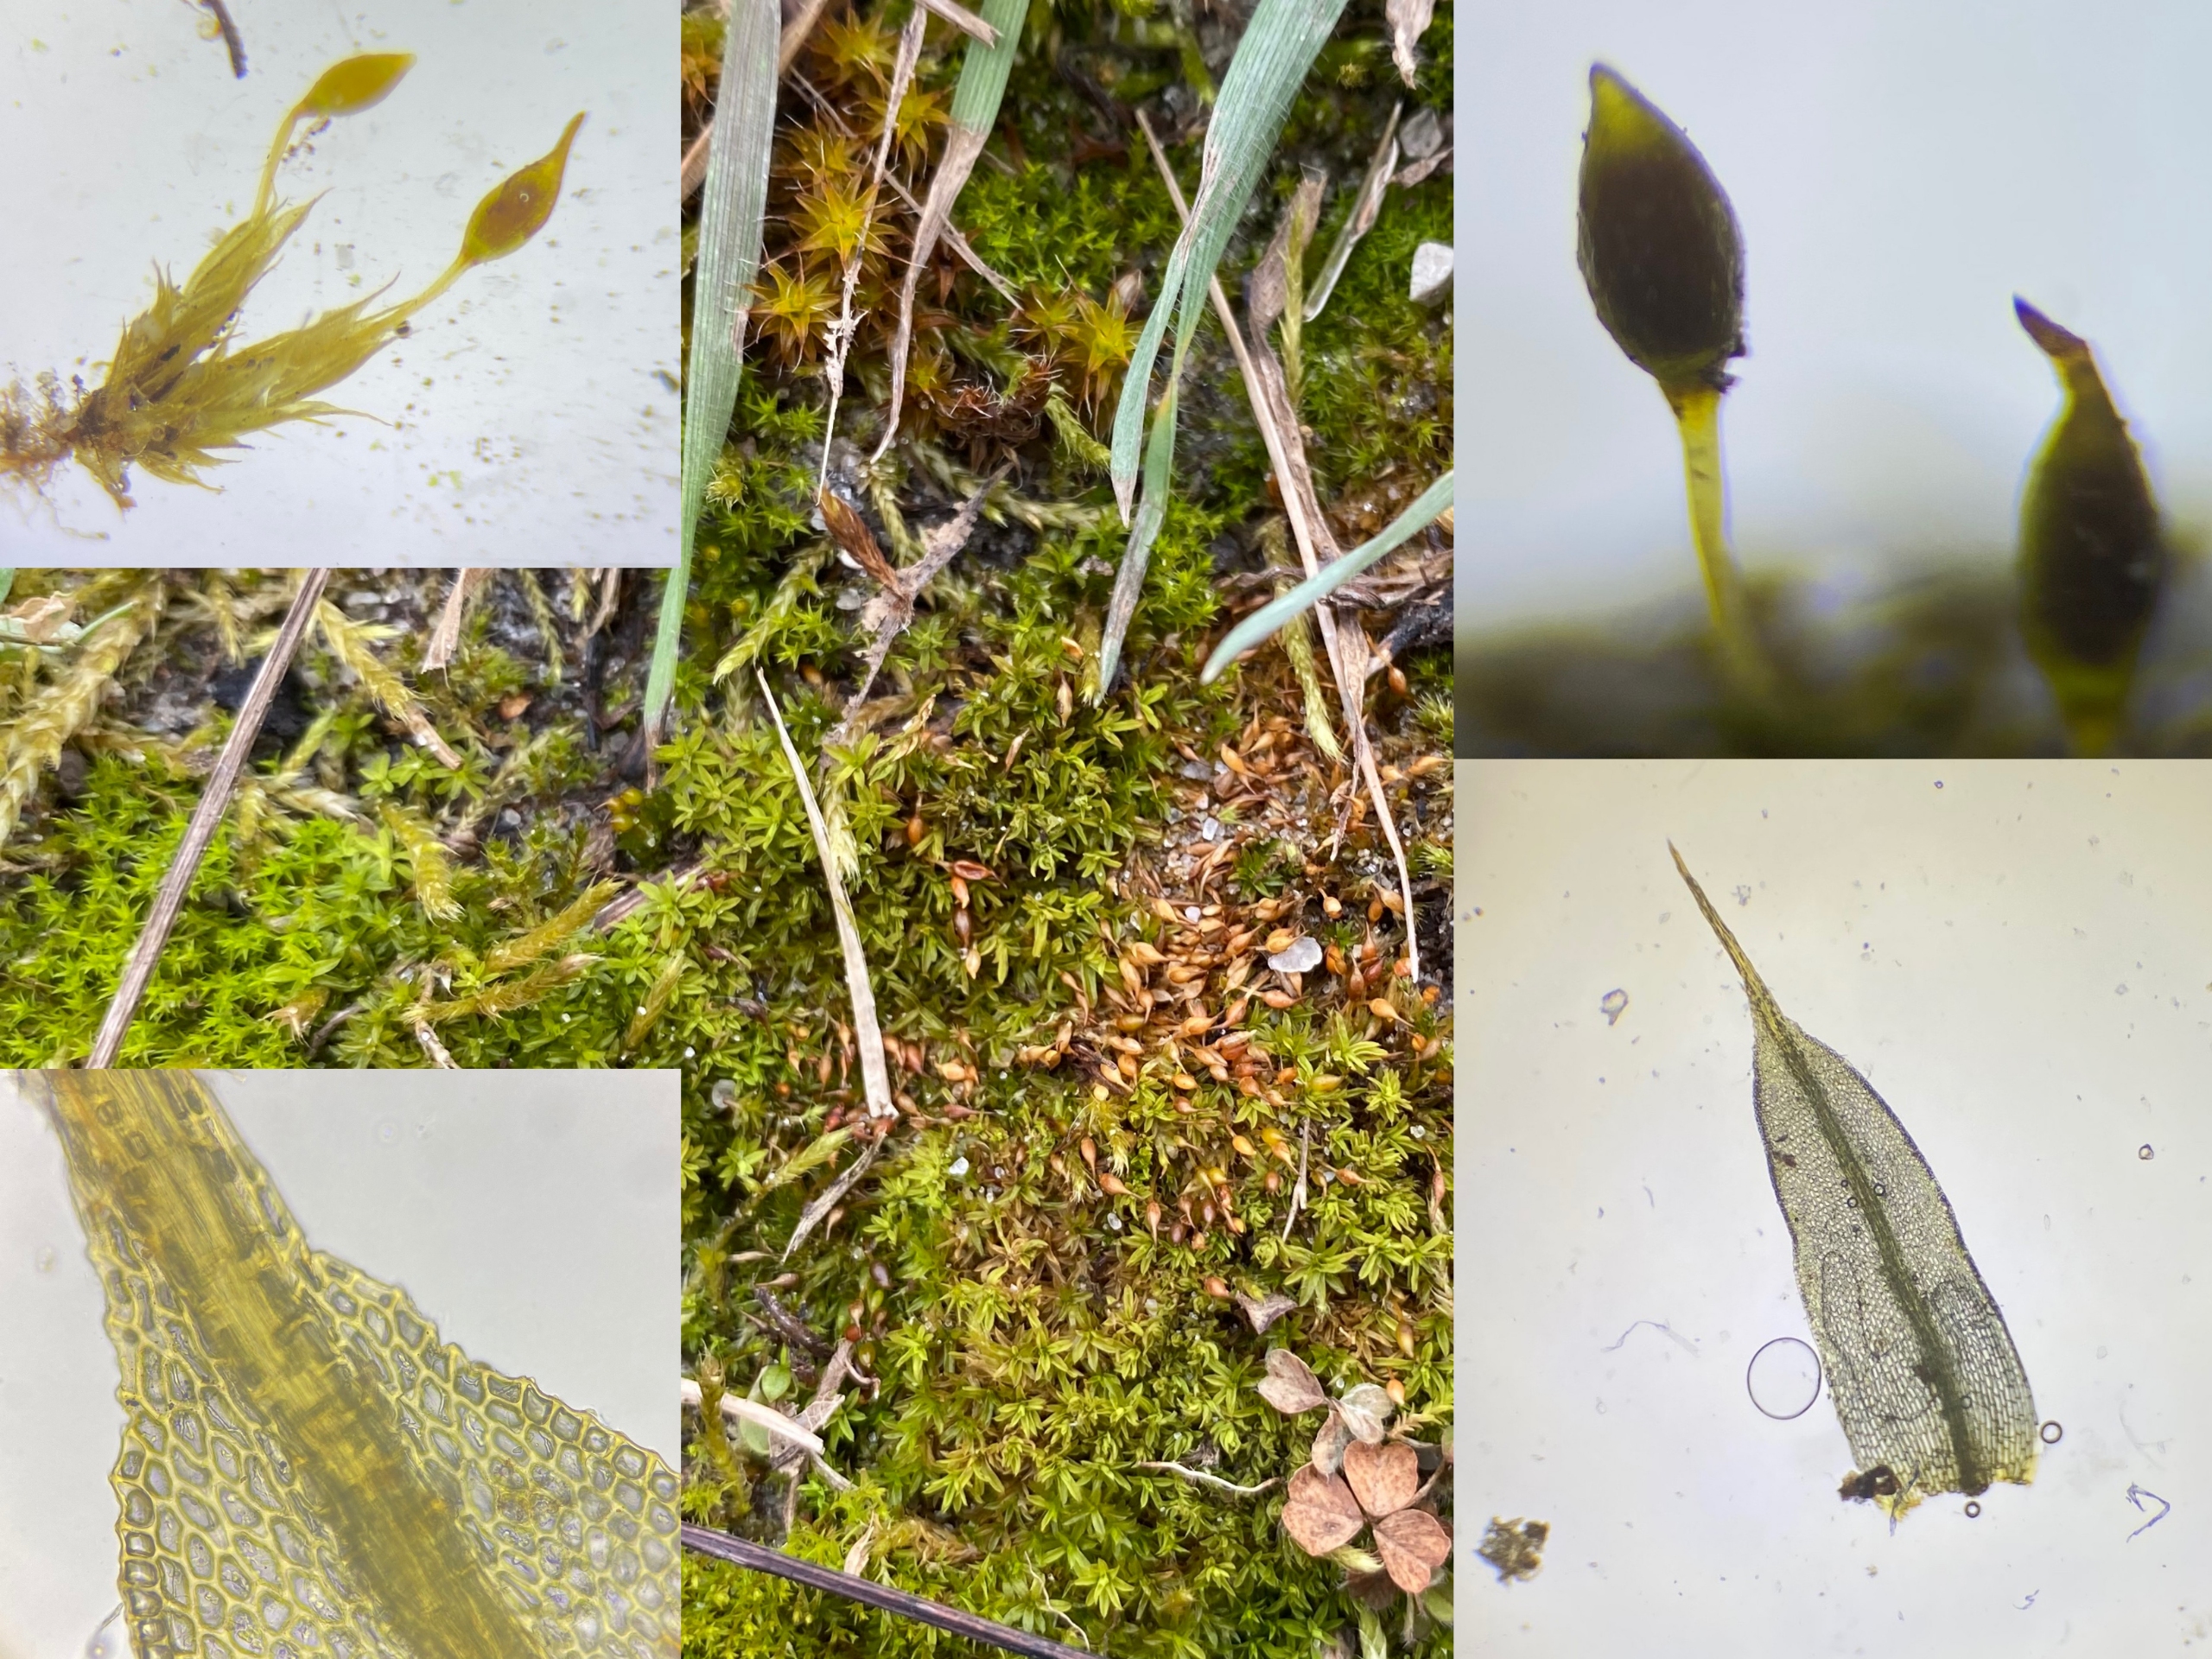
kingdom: Plantae
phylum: Bryophyta
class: Bryopsida
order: Pottiales
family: Pottiaceae
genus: Tortula
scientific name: Tortula protobryoides
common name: Lukket bægermos
